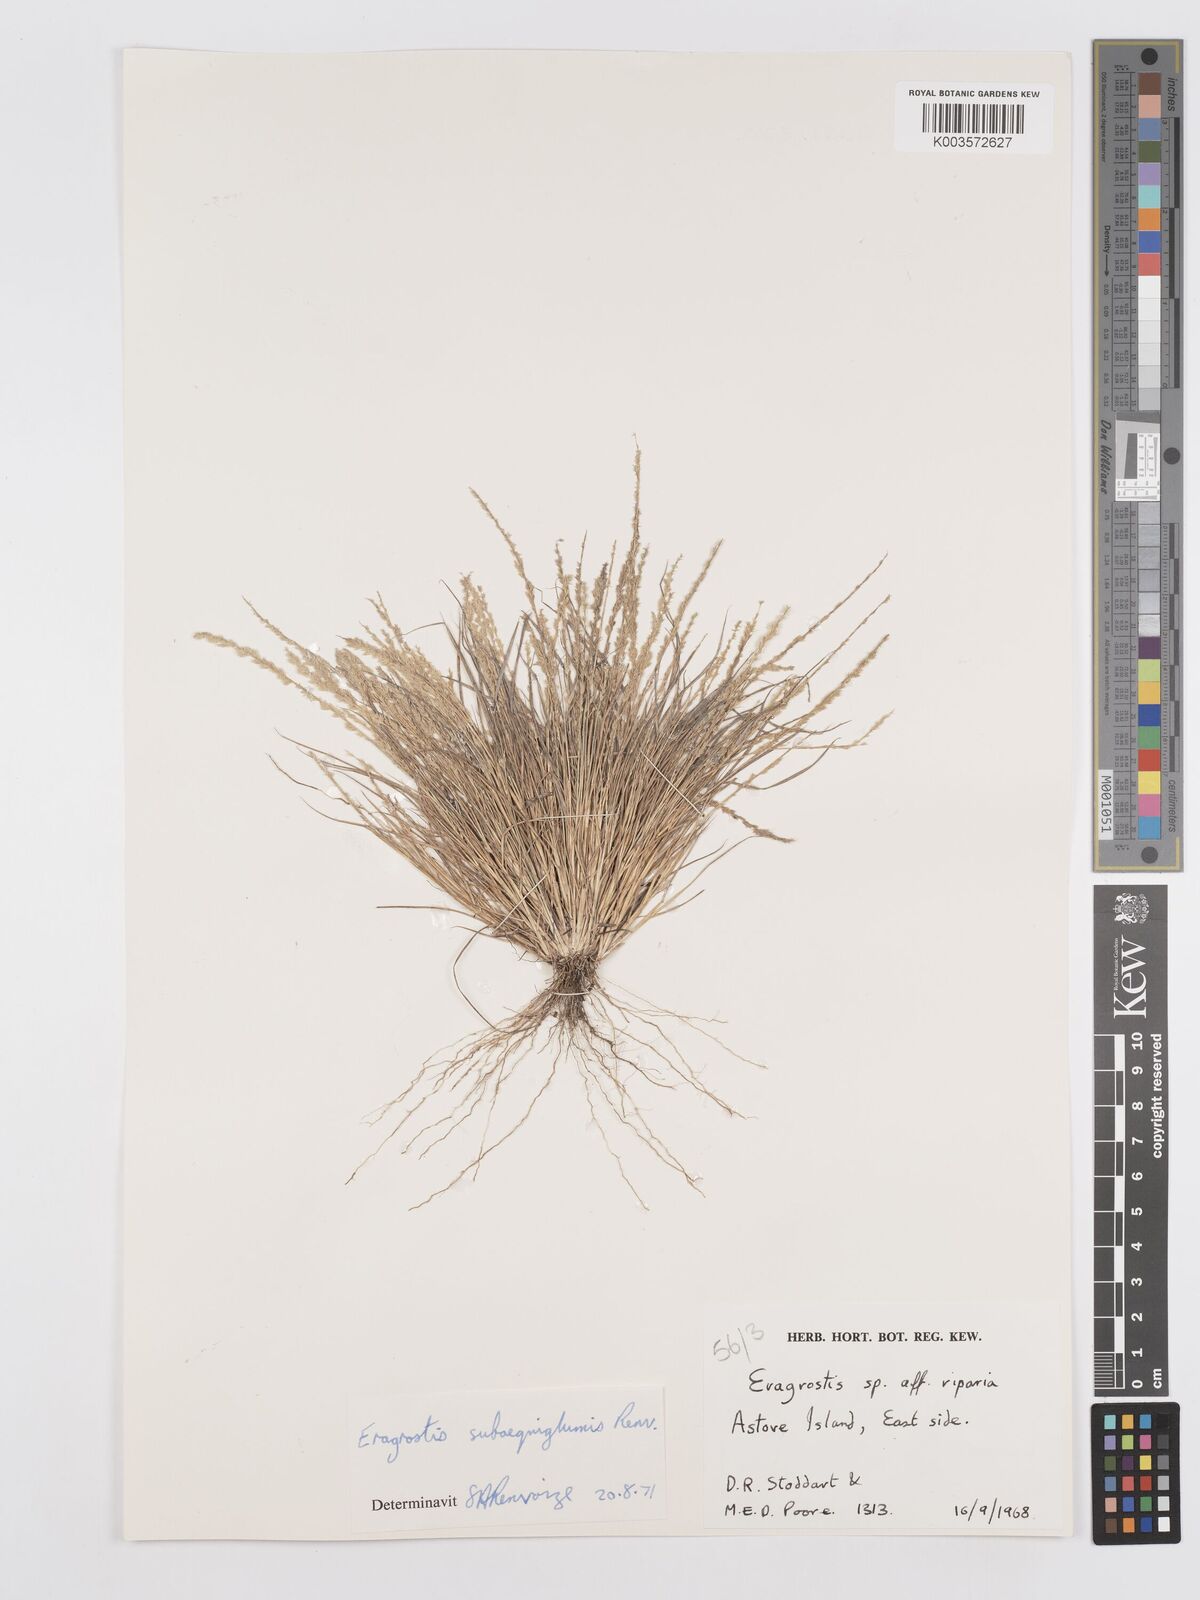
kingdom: Plantae
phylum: Tracheophyta
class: Liliopsida
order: Poales
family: Poaceae
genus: Eragrostis
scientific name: Eragrostis subaequiglumis
